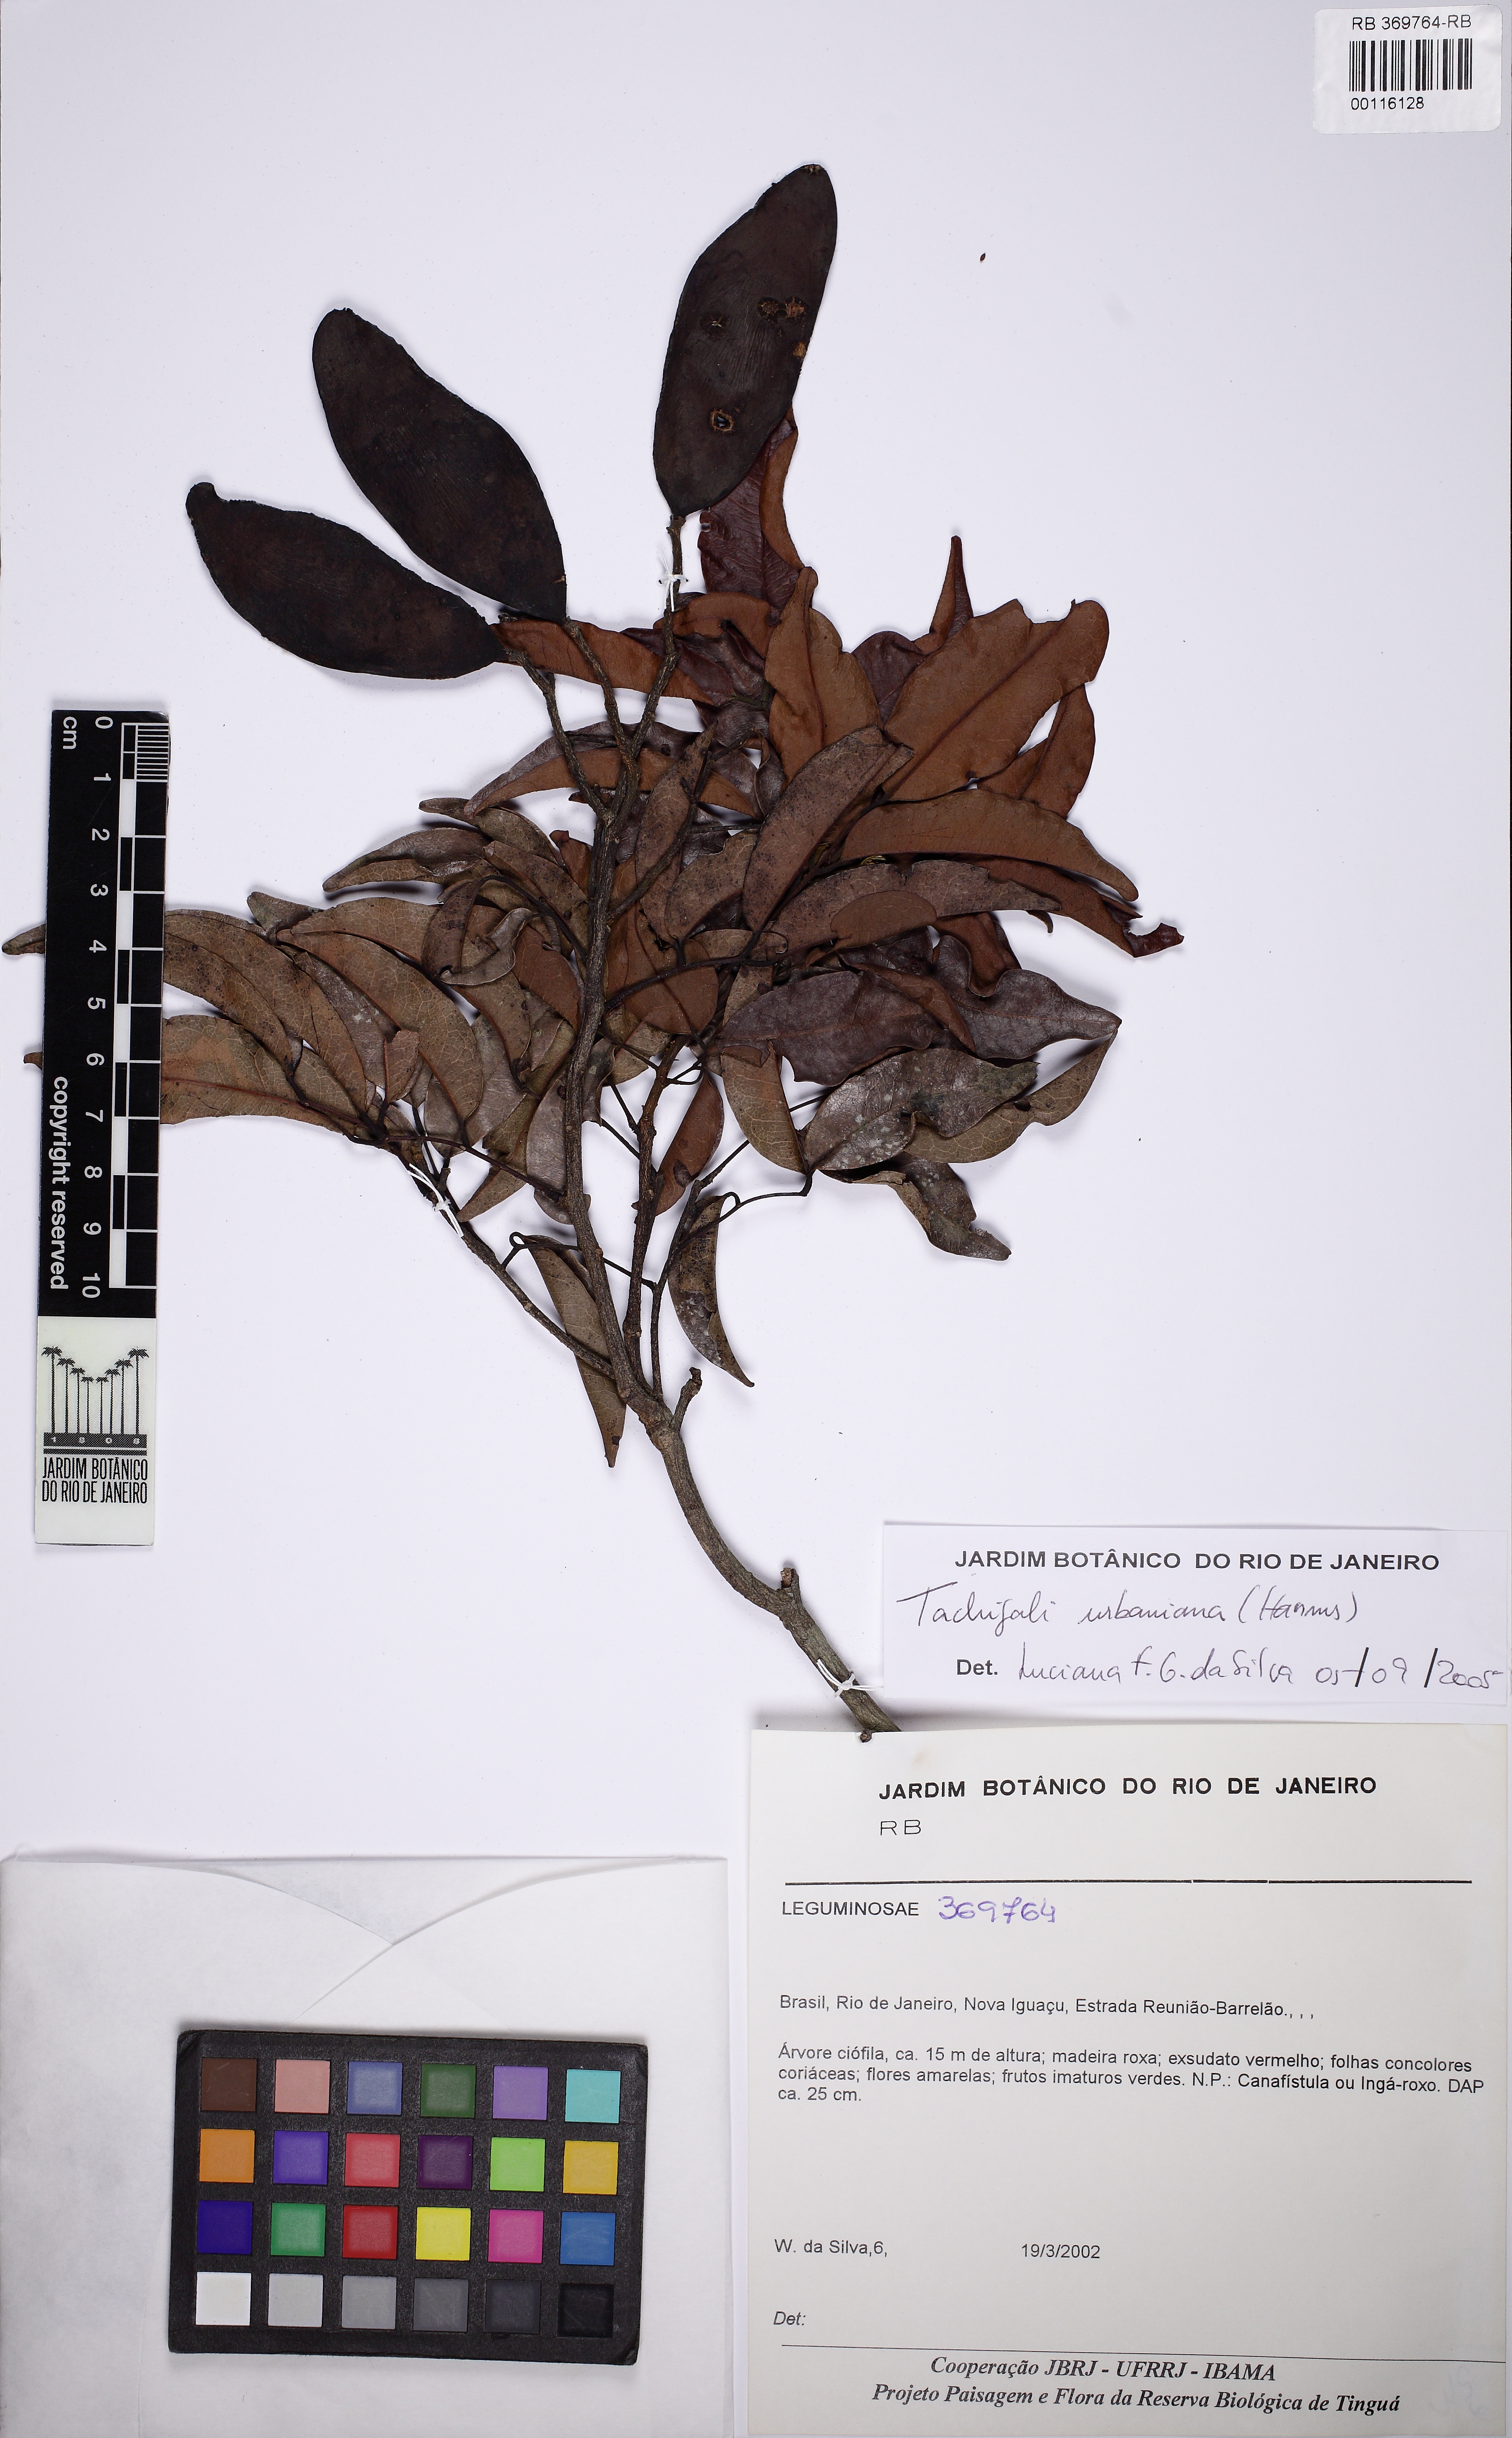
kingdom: Plantae
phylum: Tracheophyta
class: Magnoliopsida
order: Fabales
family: Fabaceae
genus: Tachigali
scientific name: Tachigali urbaniana
